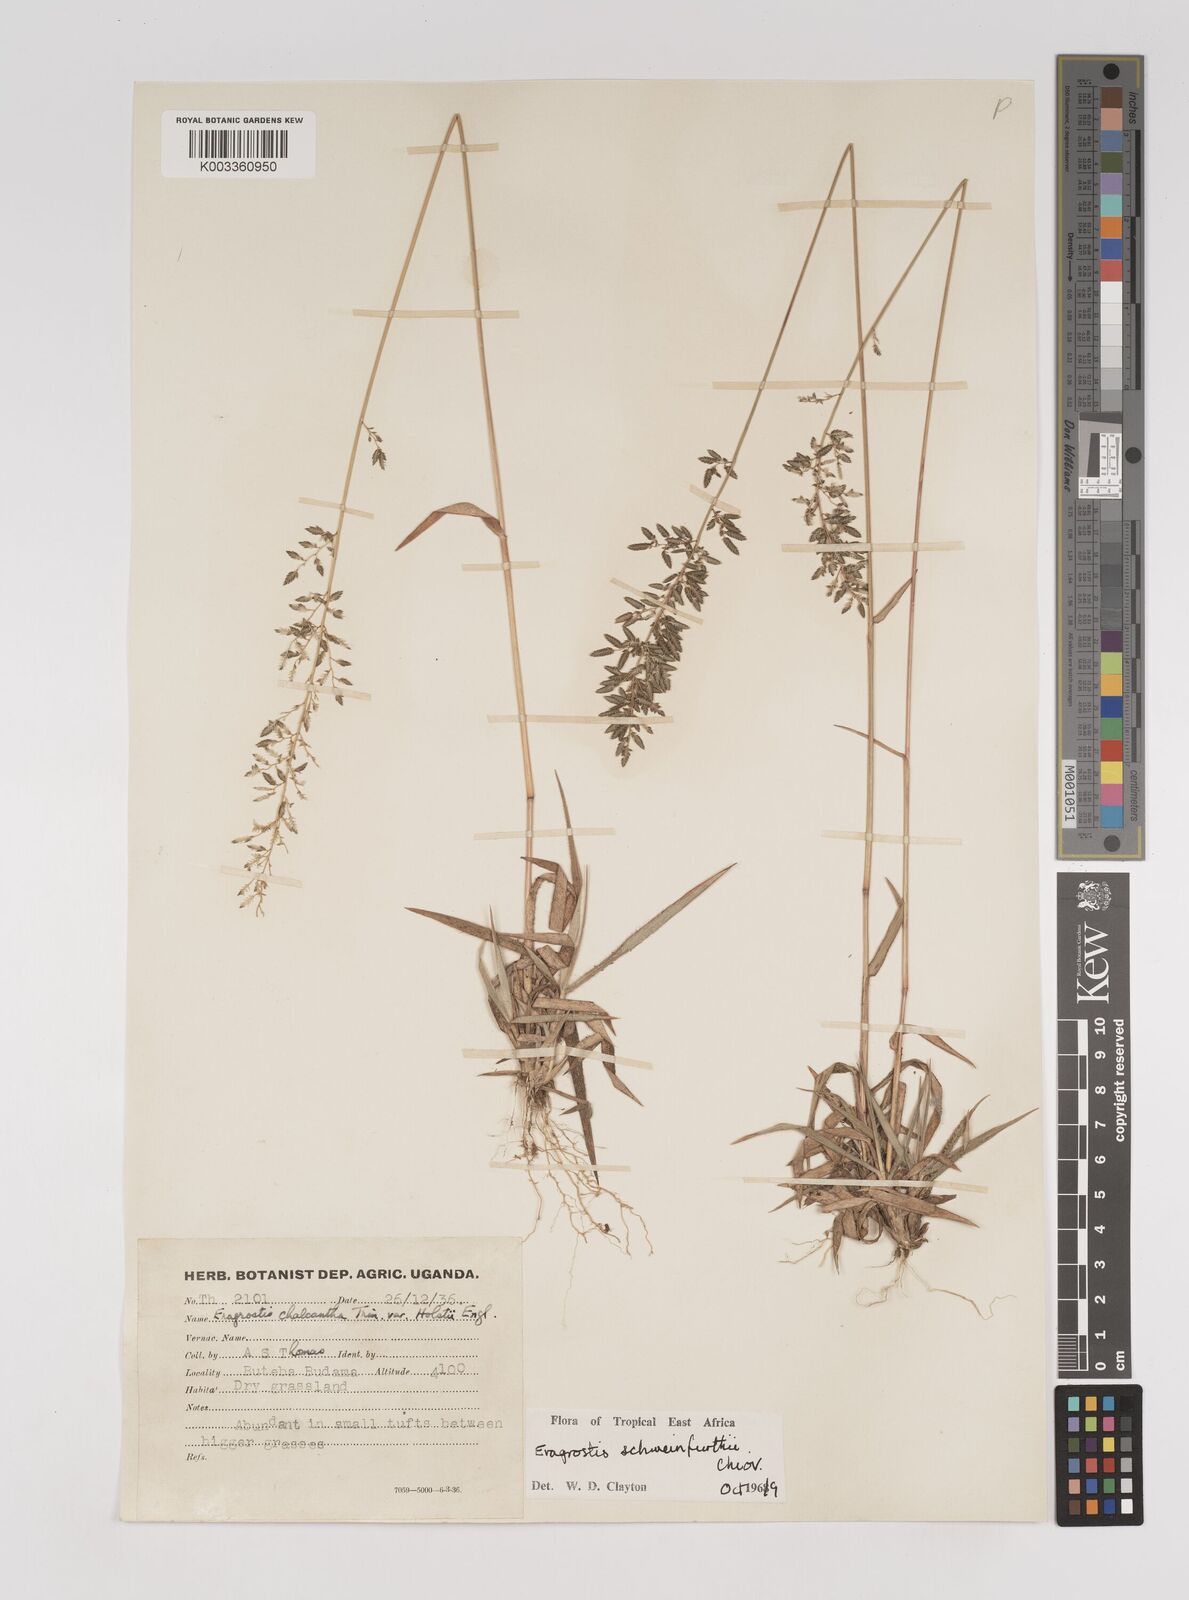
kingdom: Plantae
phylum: Tracheophyta
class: Liliopsida
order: Poales
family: Poaceae
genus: Eragrostis
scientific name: Eragrostis schweinfurthii
